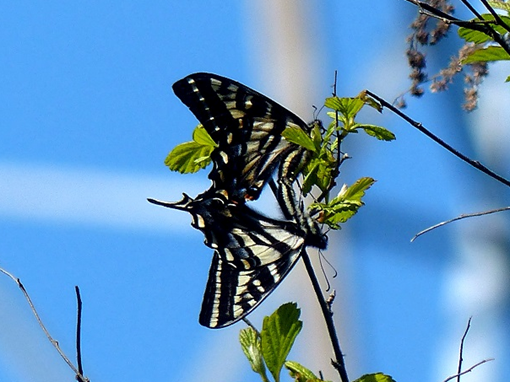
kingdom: Animalia
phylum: Arthropoda
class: Insecta
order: Lepidoptera
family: Papilionidae
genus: Pterourus
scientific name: Pterourus eurymedon
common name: Pale Swallowtail
